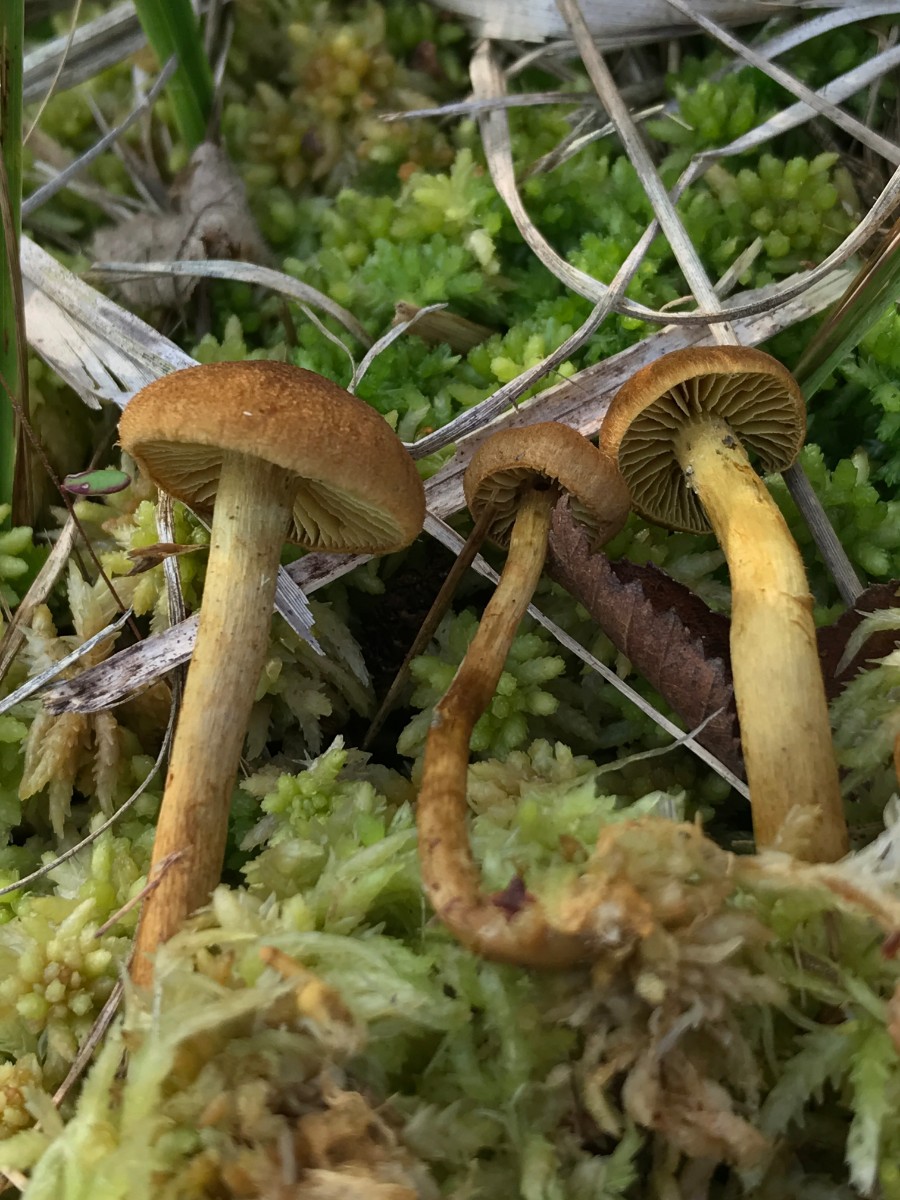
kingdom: Fungi
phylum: Basidiomycota
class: Agaricomycetes
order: Agaricales
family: Cortinariaceae
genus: Cortinarius
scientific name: Cortinarius
